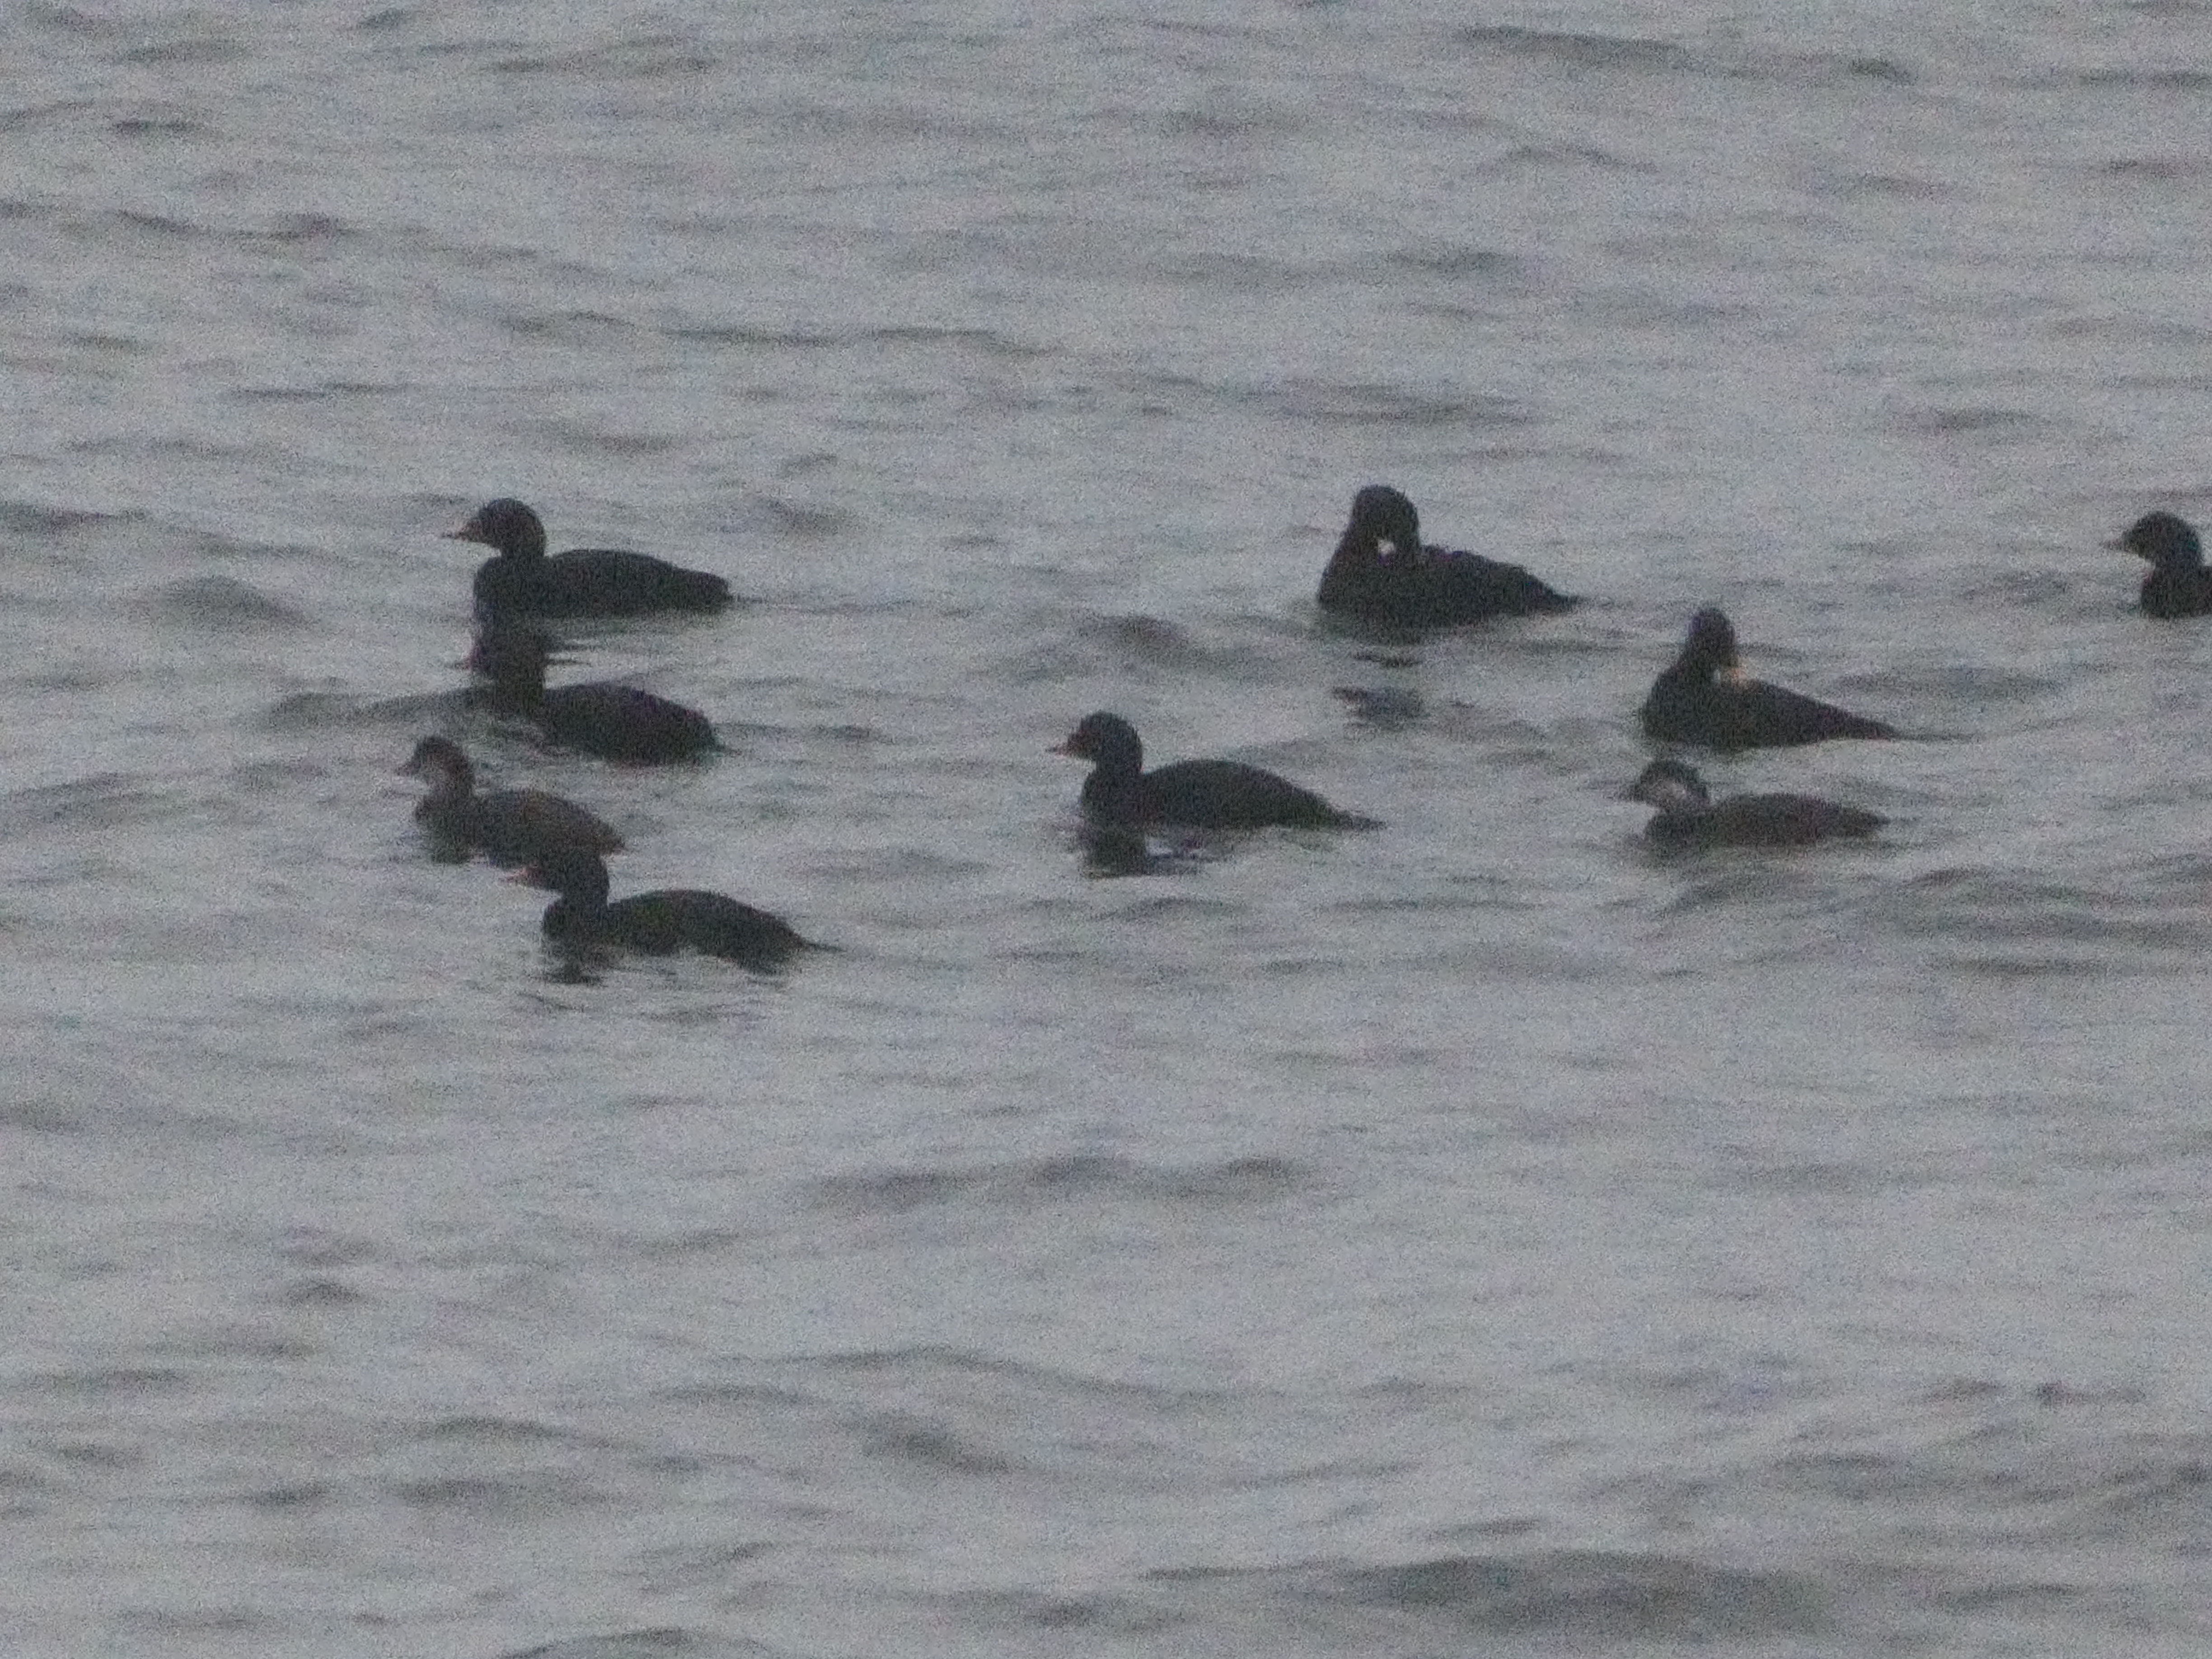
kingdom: Animalia
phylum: Chordata
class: Aves
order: Anseriformes
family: Anatidae
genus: Melanitta
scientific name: Melanitta nigra
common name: Sortand
